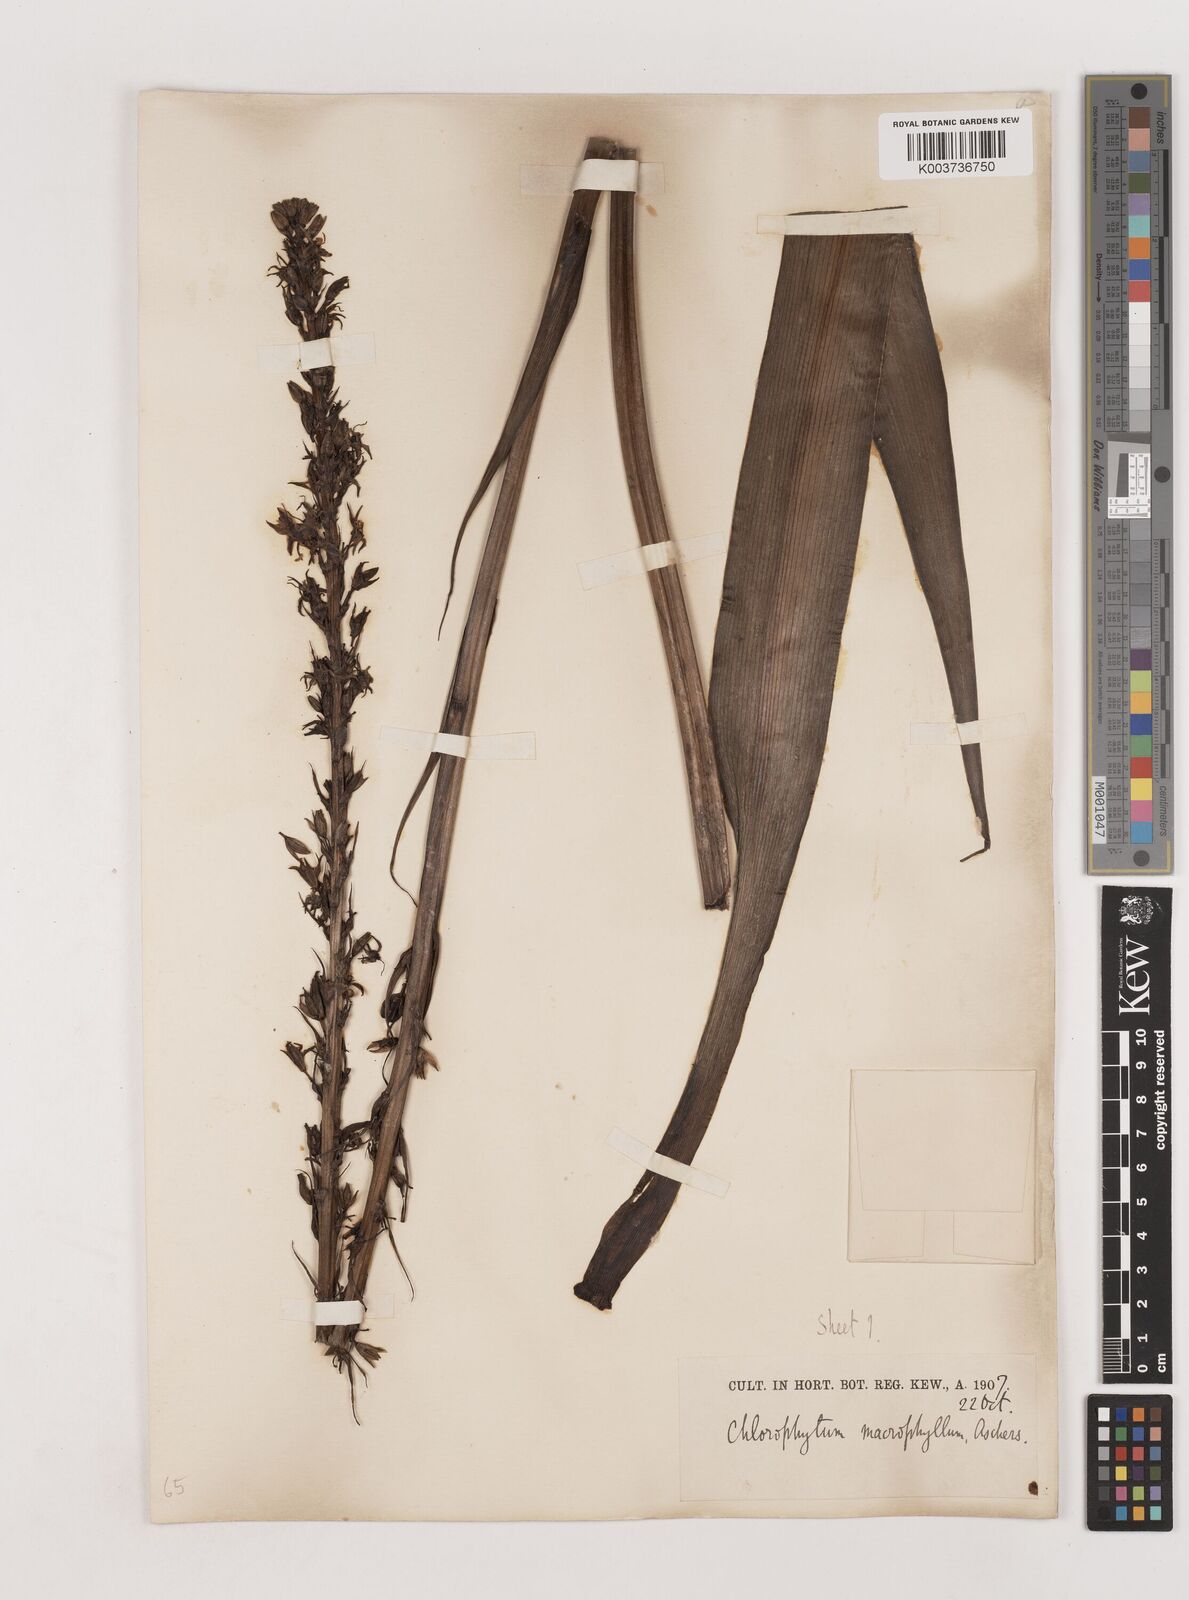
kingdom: Plantae
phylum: Tracheophyta
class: Liliopsida
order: Asparagales
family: Asparagaceae
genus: Chlorophytum
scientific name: Chlorophytum macrophyllum
